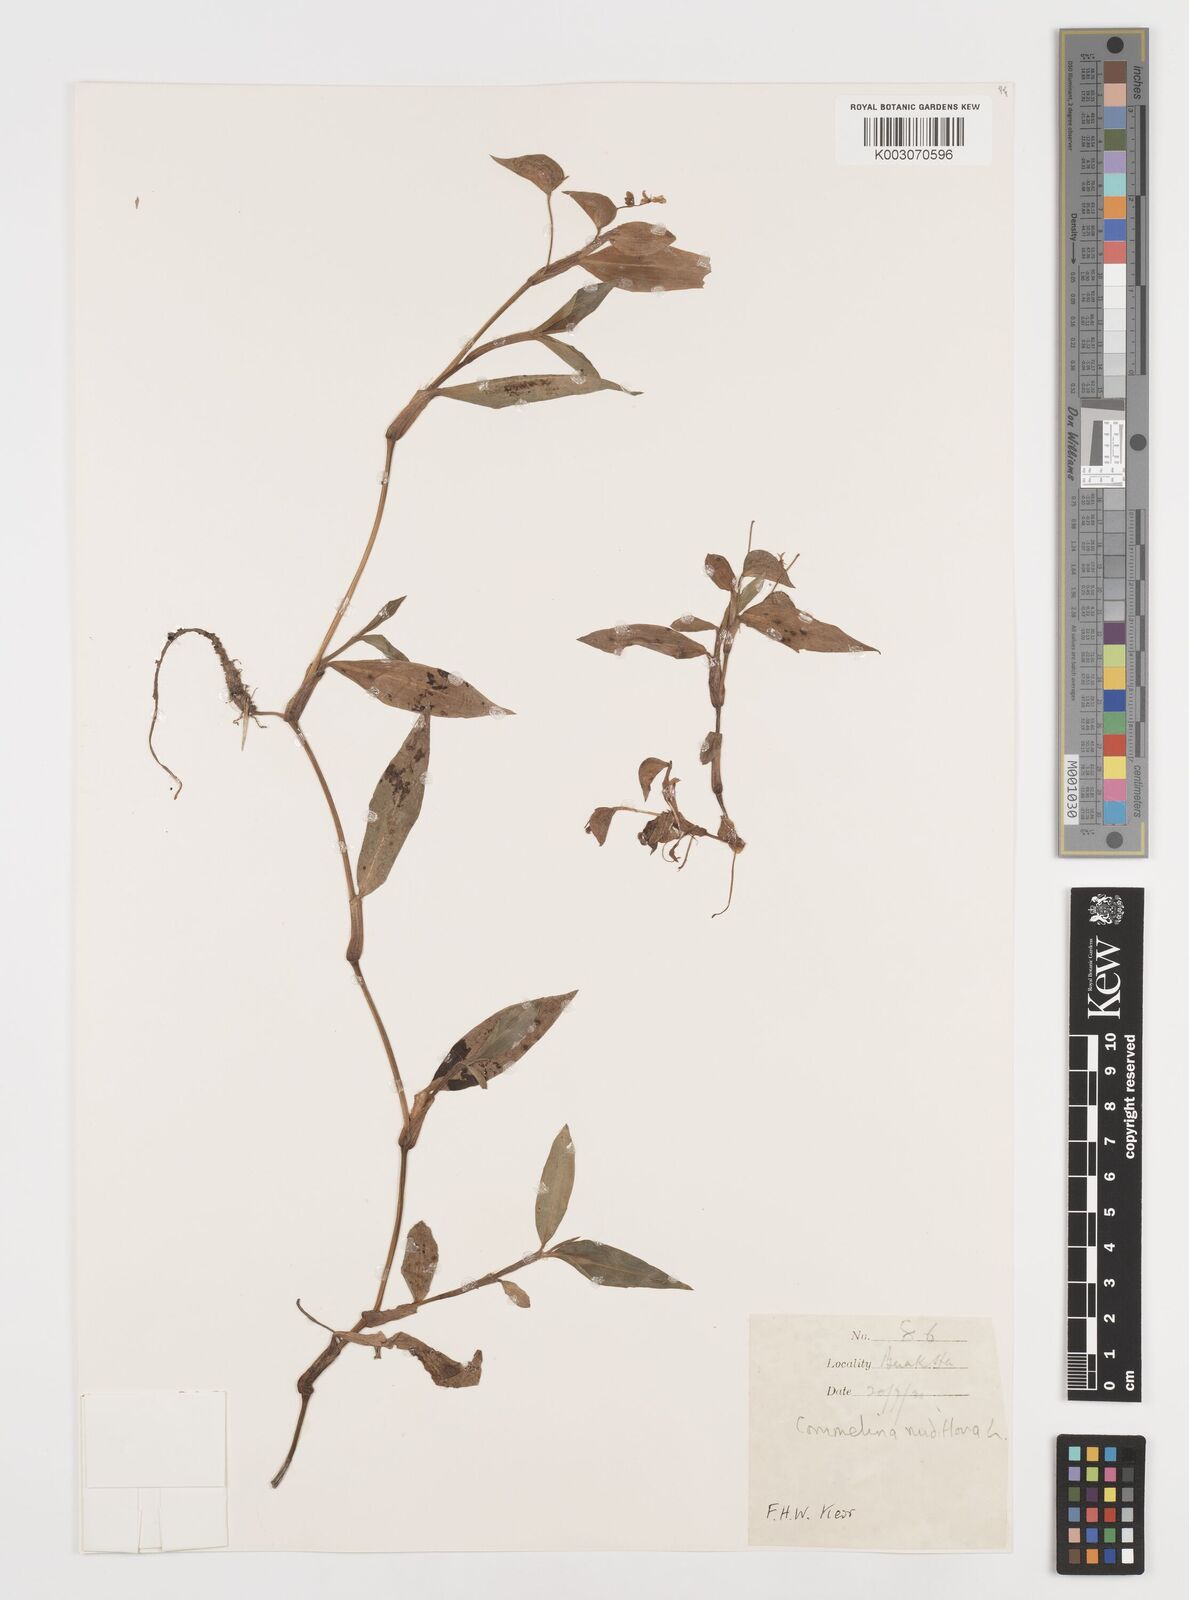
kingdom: Plantae
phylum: Tracheophyta
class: Liliopsida
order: Commelinales
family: Commelinaceae
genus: Commelina
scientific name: Commelina clavata
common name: Willow leaved dayflower
